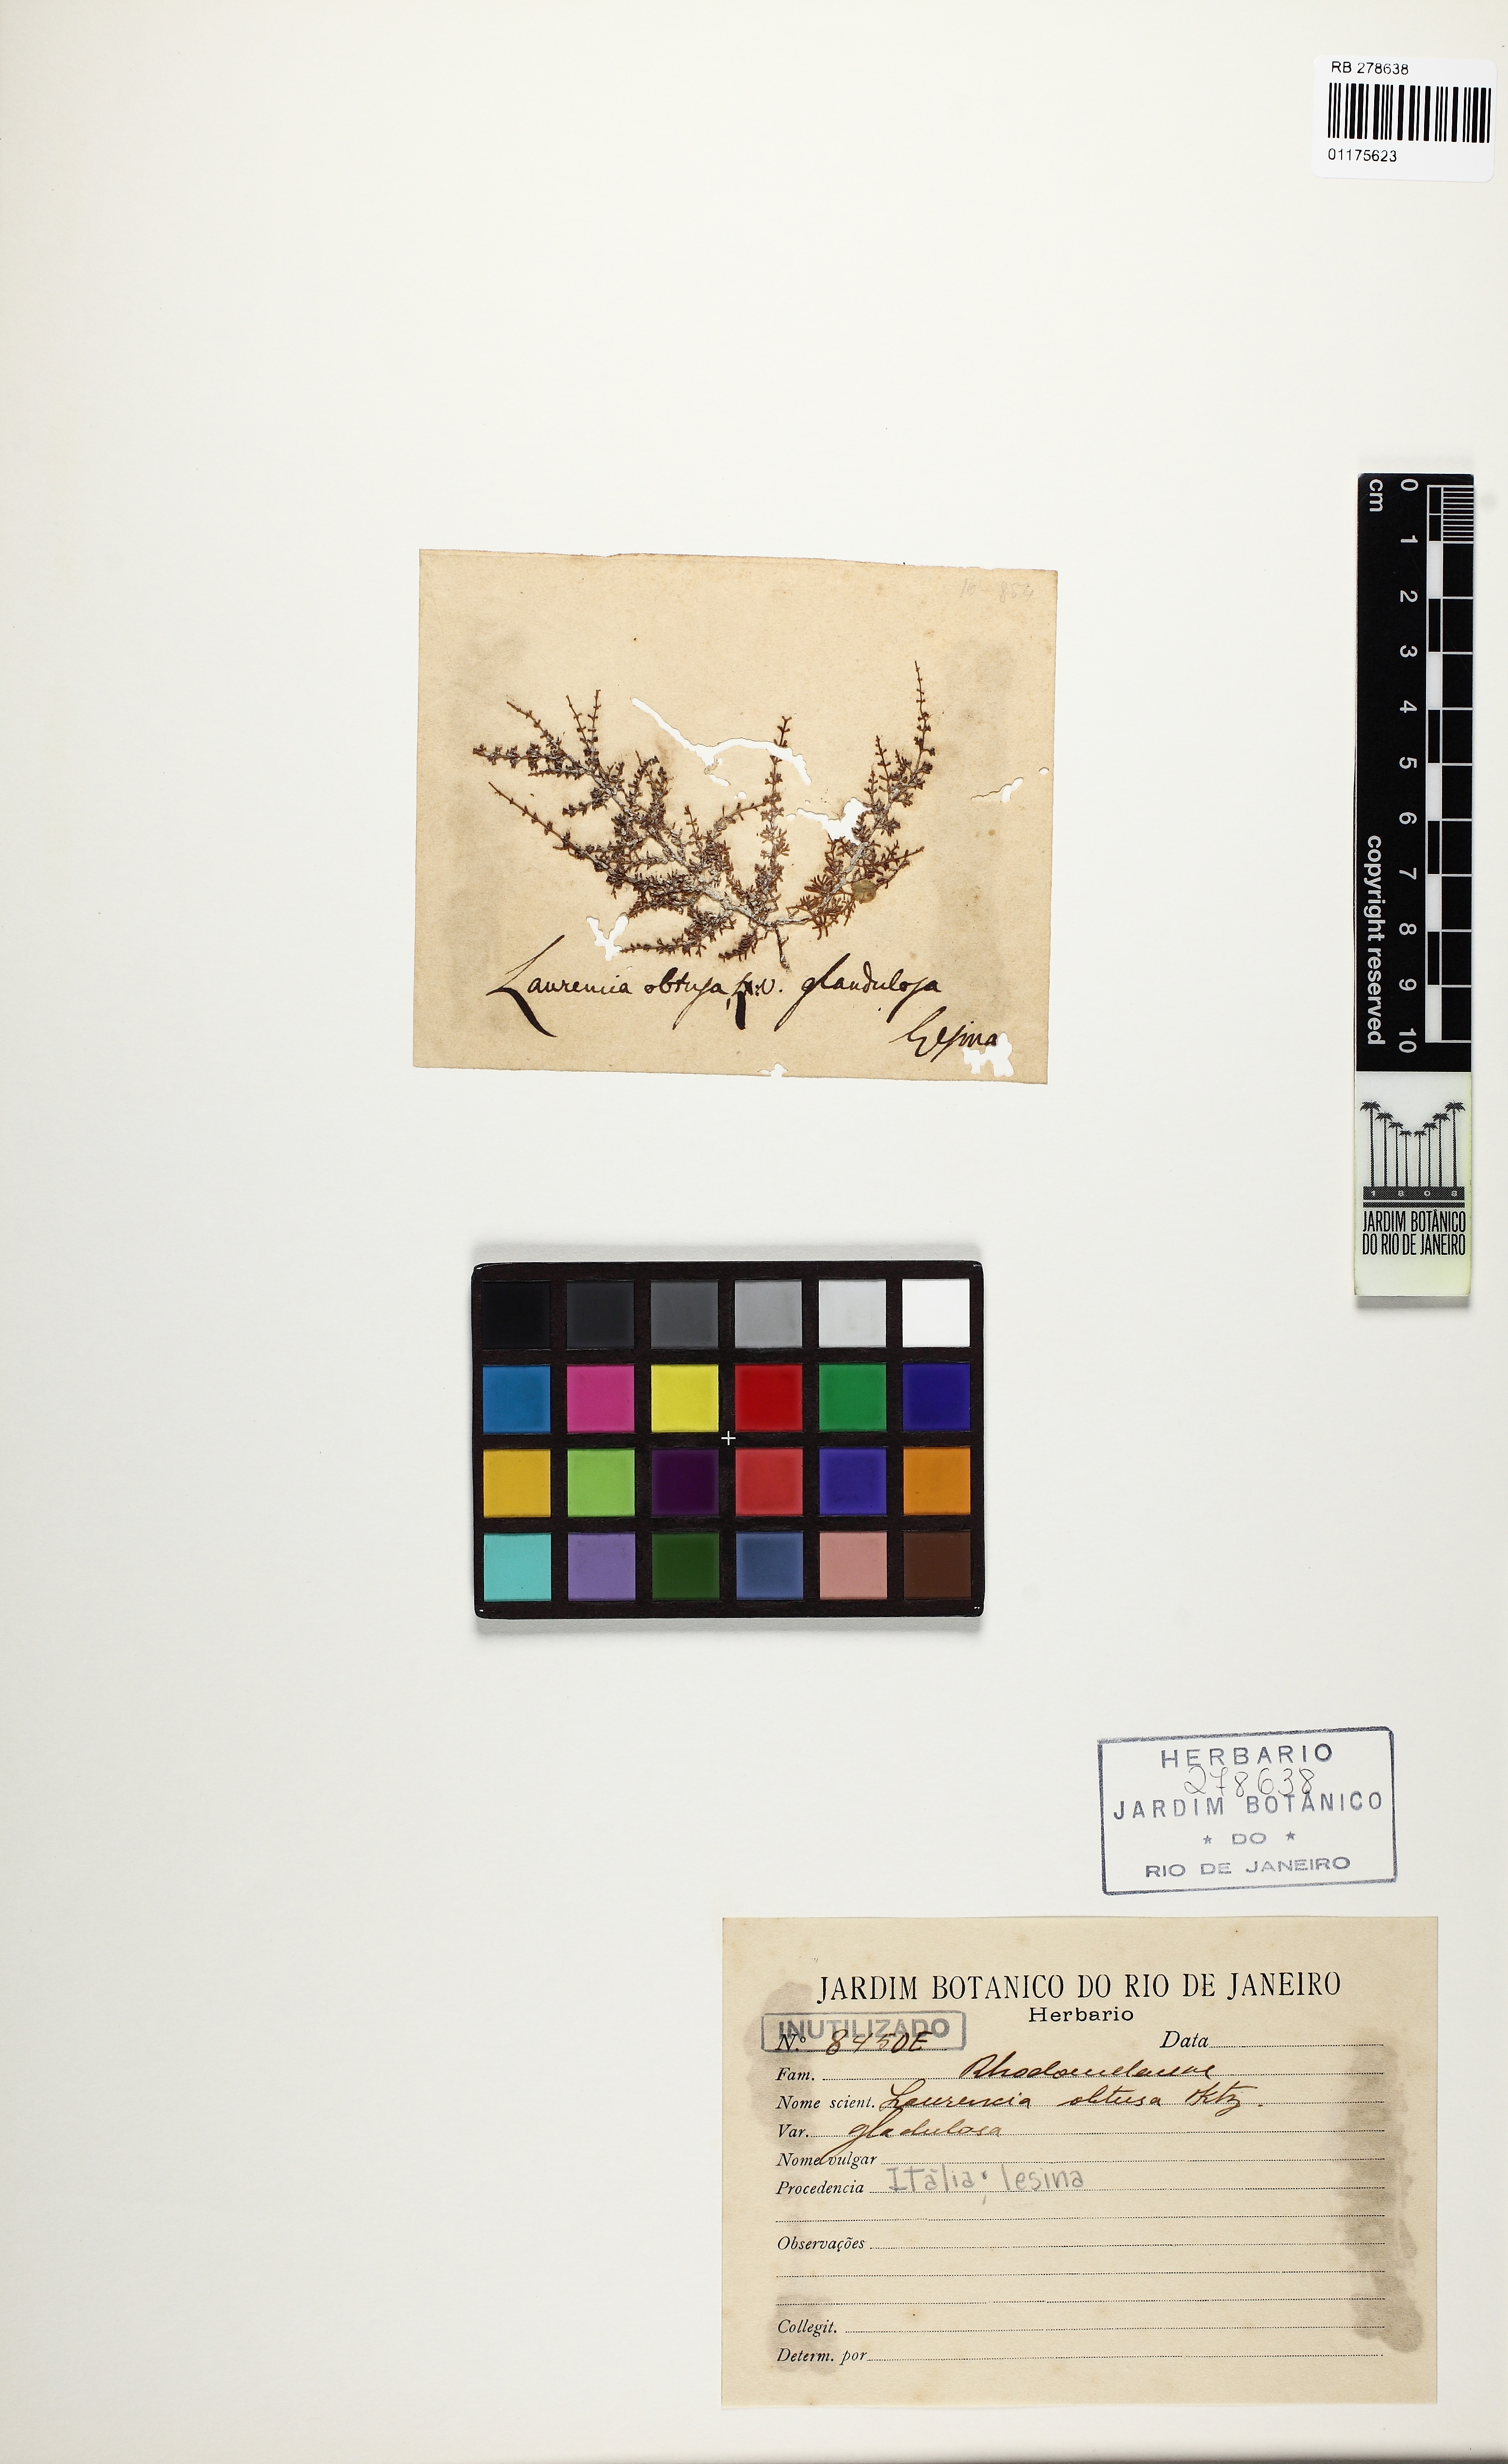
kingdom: Plantae
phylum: Rhodophyta
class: Florideophyceae
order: Ceramiales
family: Rhodomelaceae
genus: Laurencia
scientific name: Laurencia dendroidea
